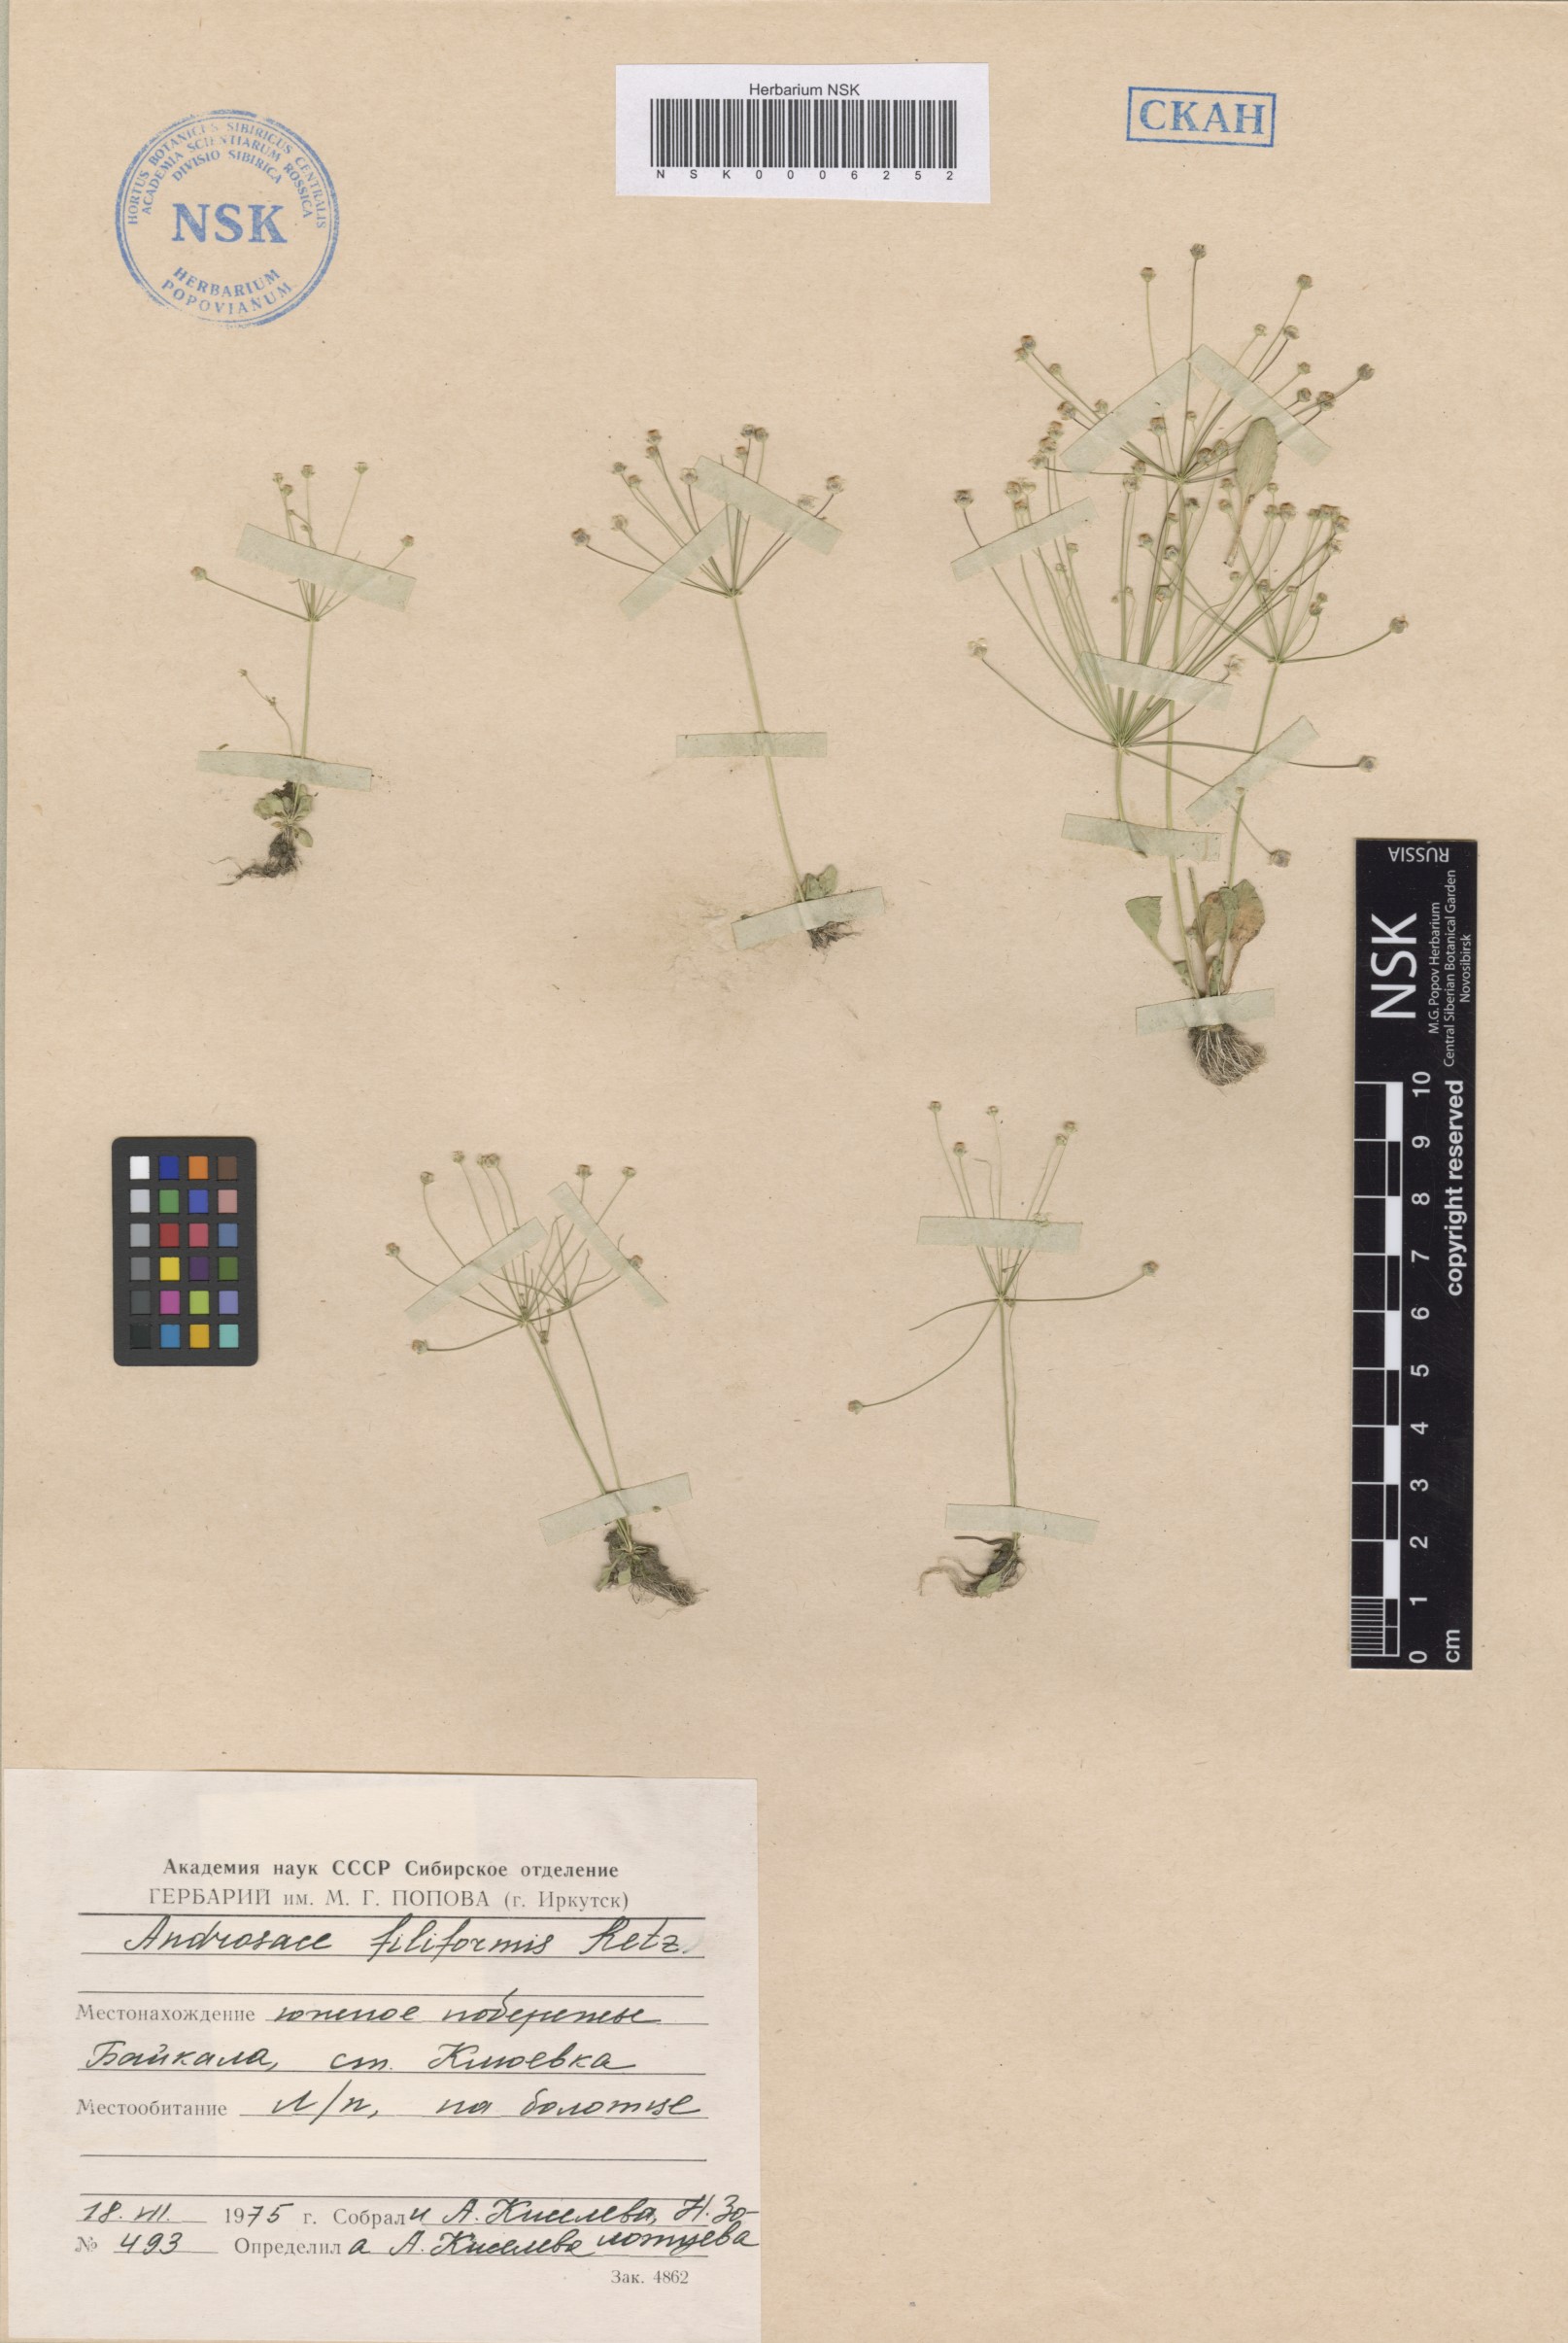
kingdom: Plantae
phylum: Tracheophyta
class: Magnoliopsida
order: Ericales
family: Primulaceae
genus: Androsace
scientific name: Androsace filiformis
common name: Filiform rock jasmine
